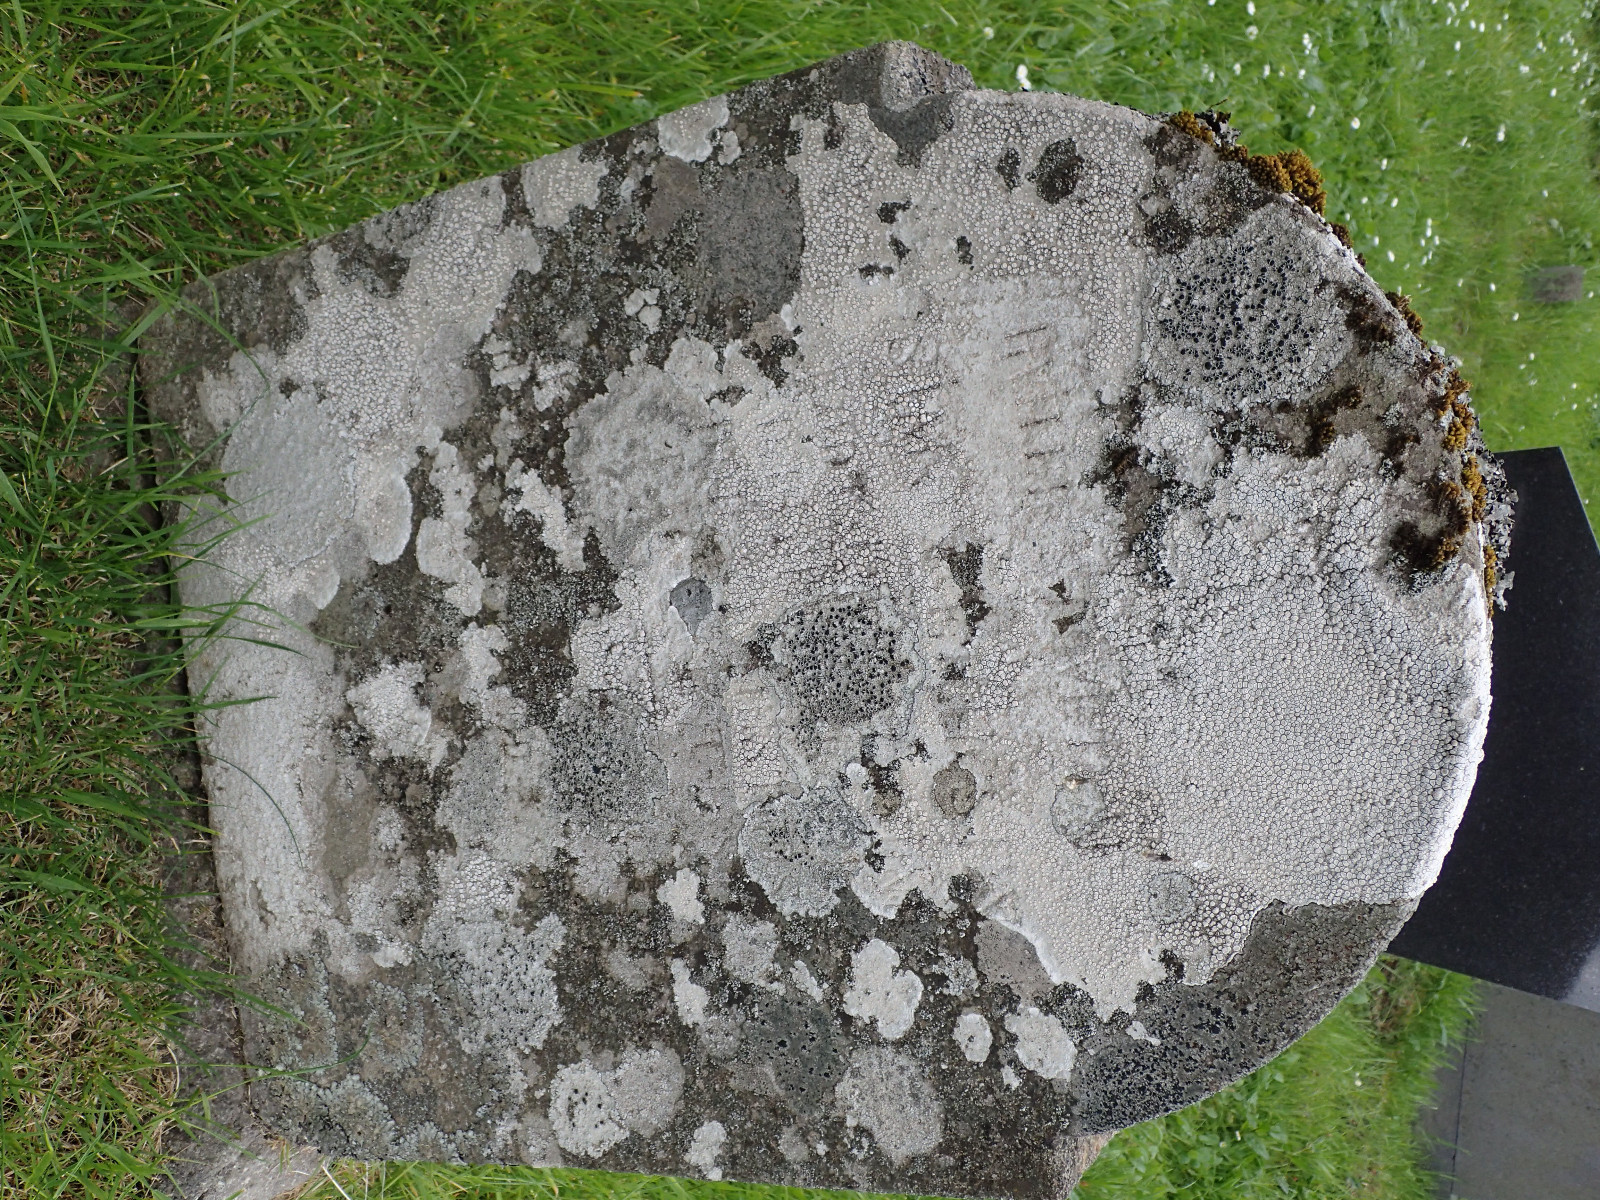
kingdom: Fungi
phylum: Ascomycota
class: Lecanoromycetes
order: Lecanorales
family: Tephromelataceae
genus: Tephromela
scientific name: Tephromela atra
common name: sortfrugtet kantskivelav
